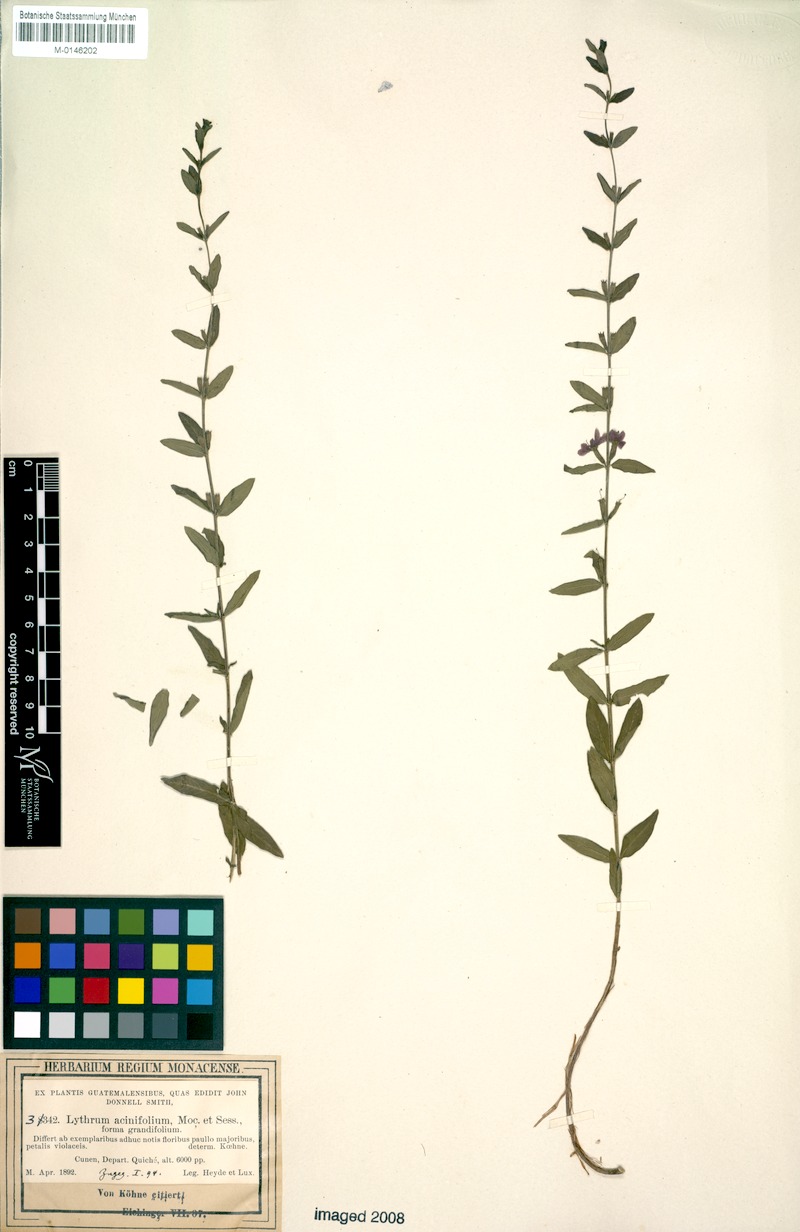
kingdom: Plantae
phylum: Tracheophyta
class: Magnoliopsida
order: Myrtales
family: Lythraceae
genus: Lythrum
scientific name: Lythrum gracile
